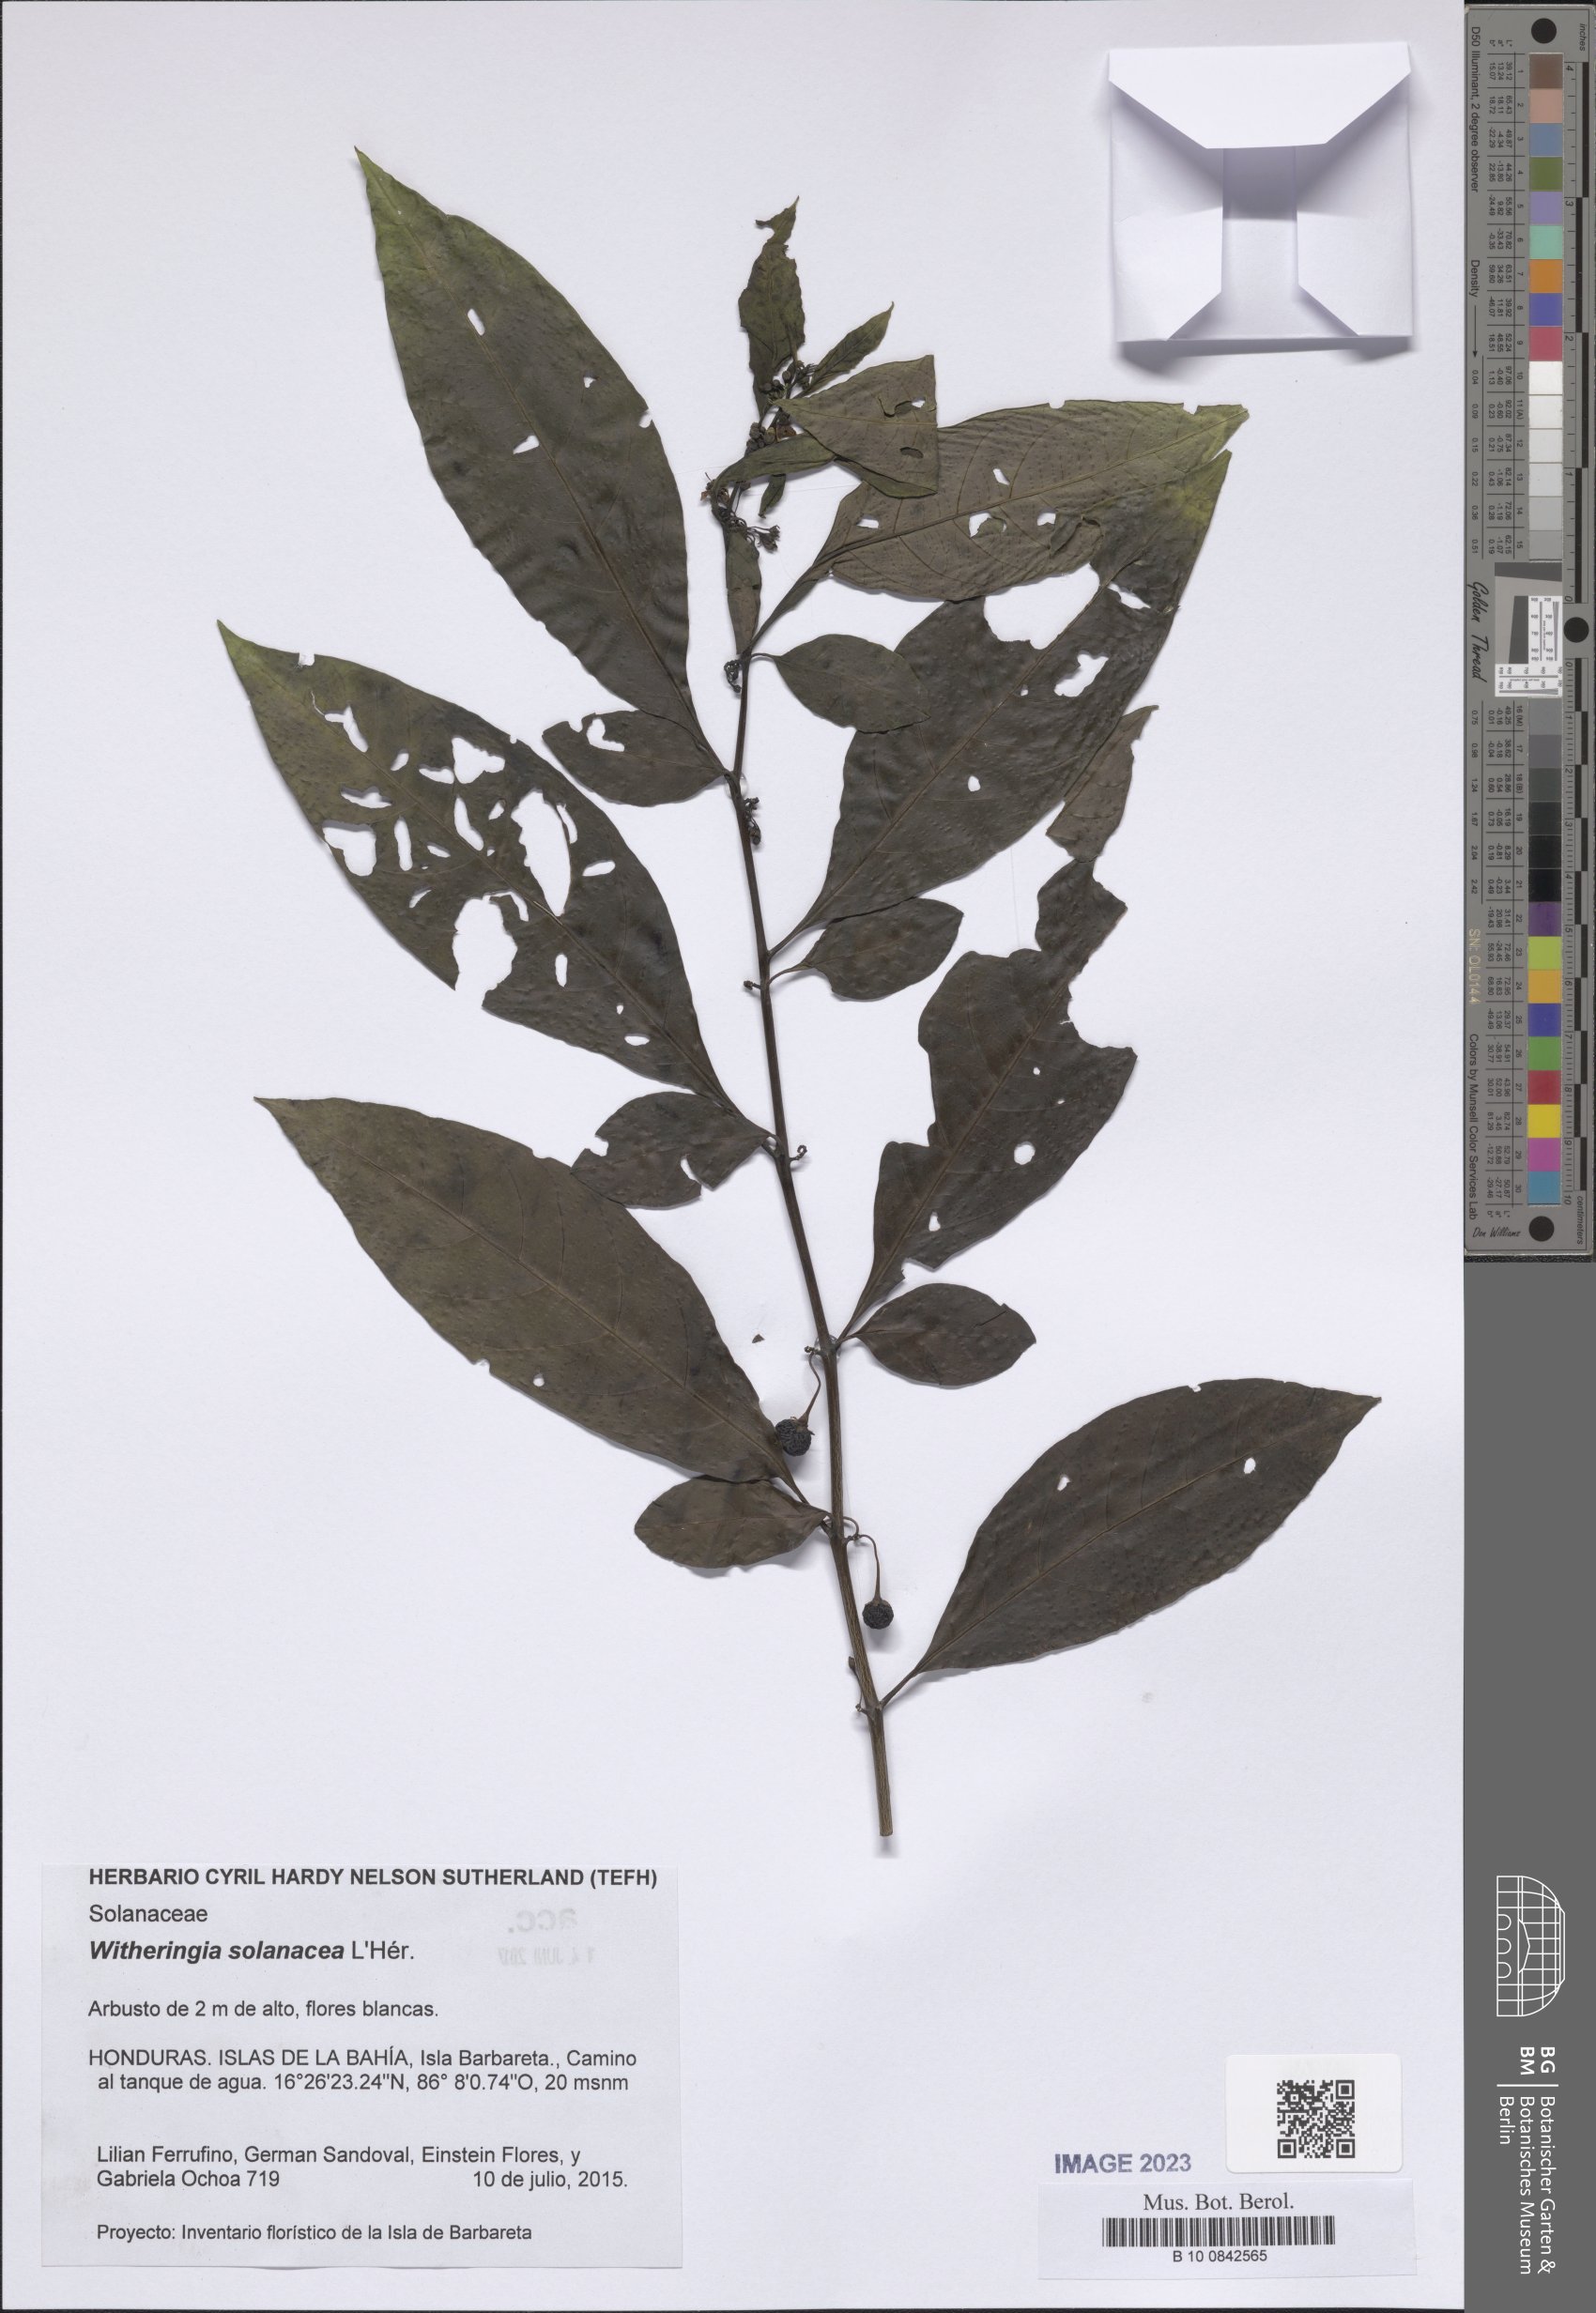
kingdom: Plantae
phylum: Tracheophyta
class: Magnoliopsida
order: Solanales
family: Solanaceae
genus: Witheringia
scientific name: Witheringia solanacea
